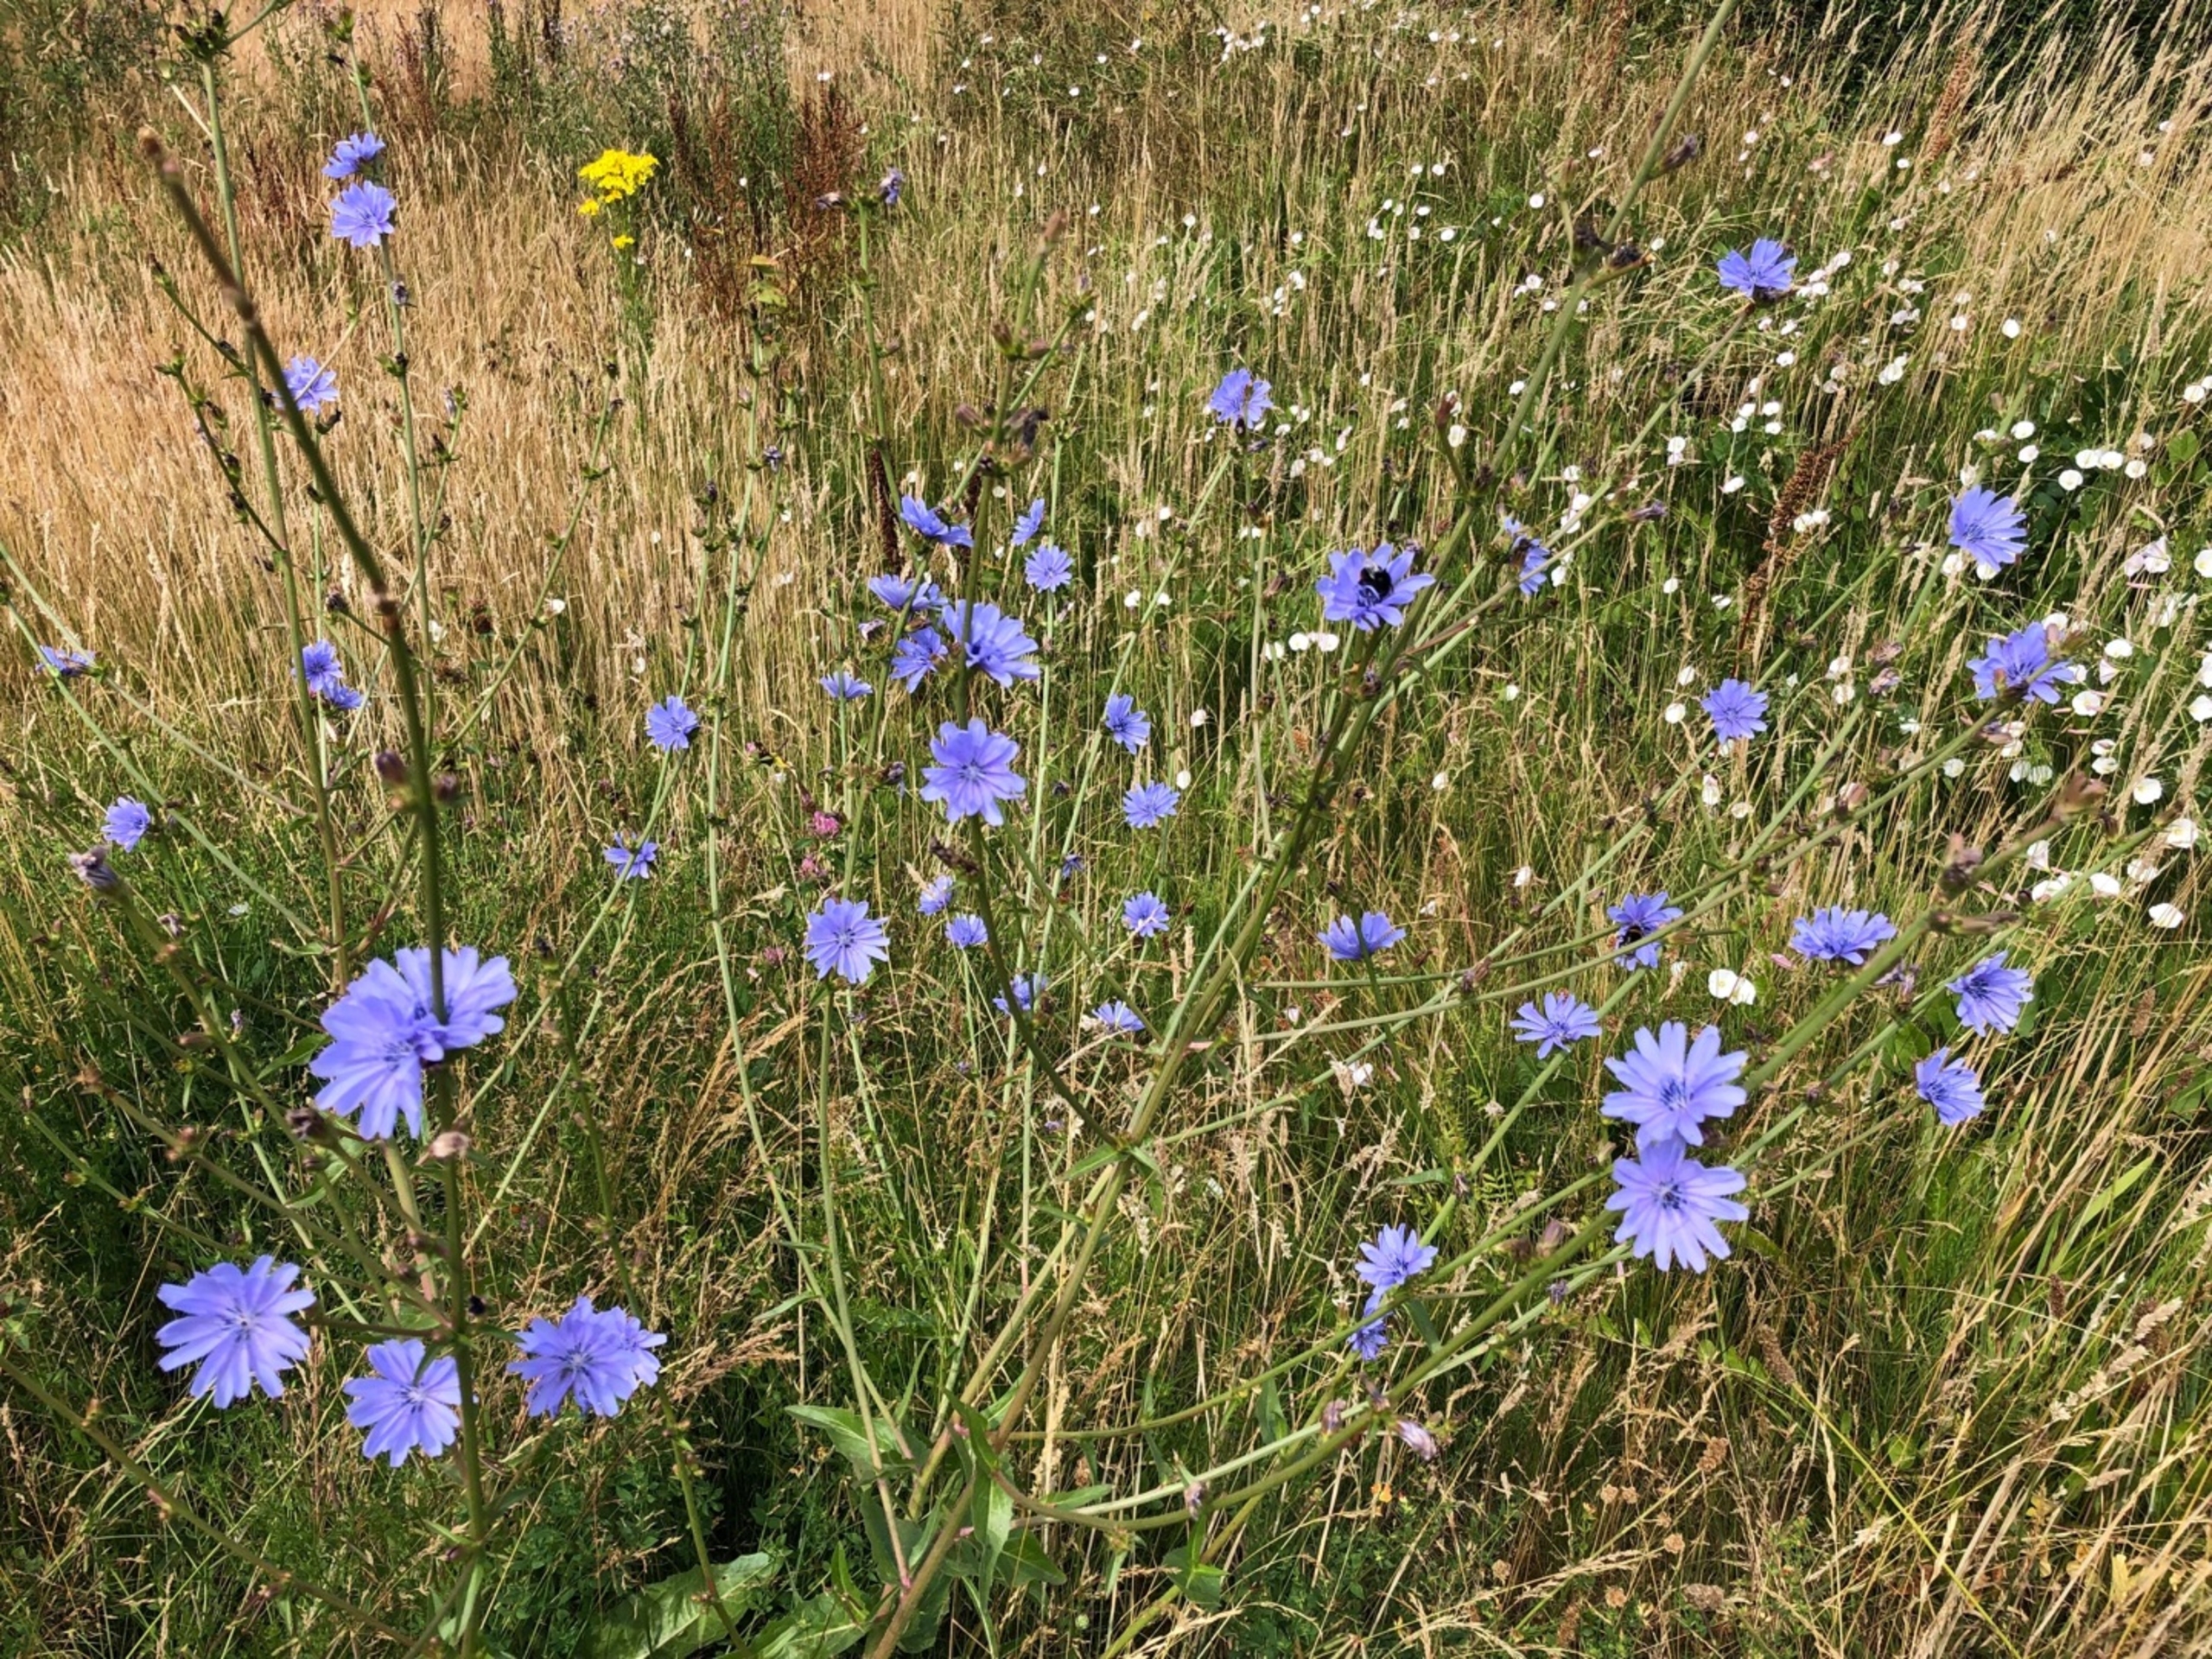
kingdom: Plantae
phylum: Tracheophyta
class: Magnoliopsida
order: Asterales
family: Asteraceae
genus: Cichorium
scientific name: Cichorium intybus
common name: Cikorie
